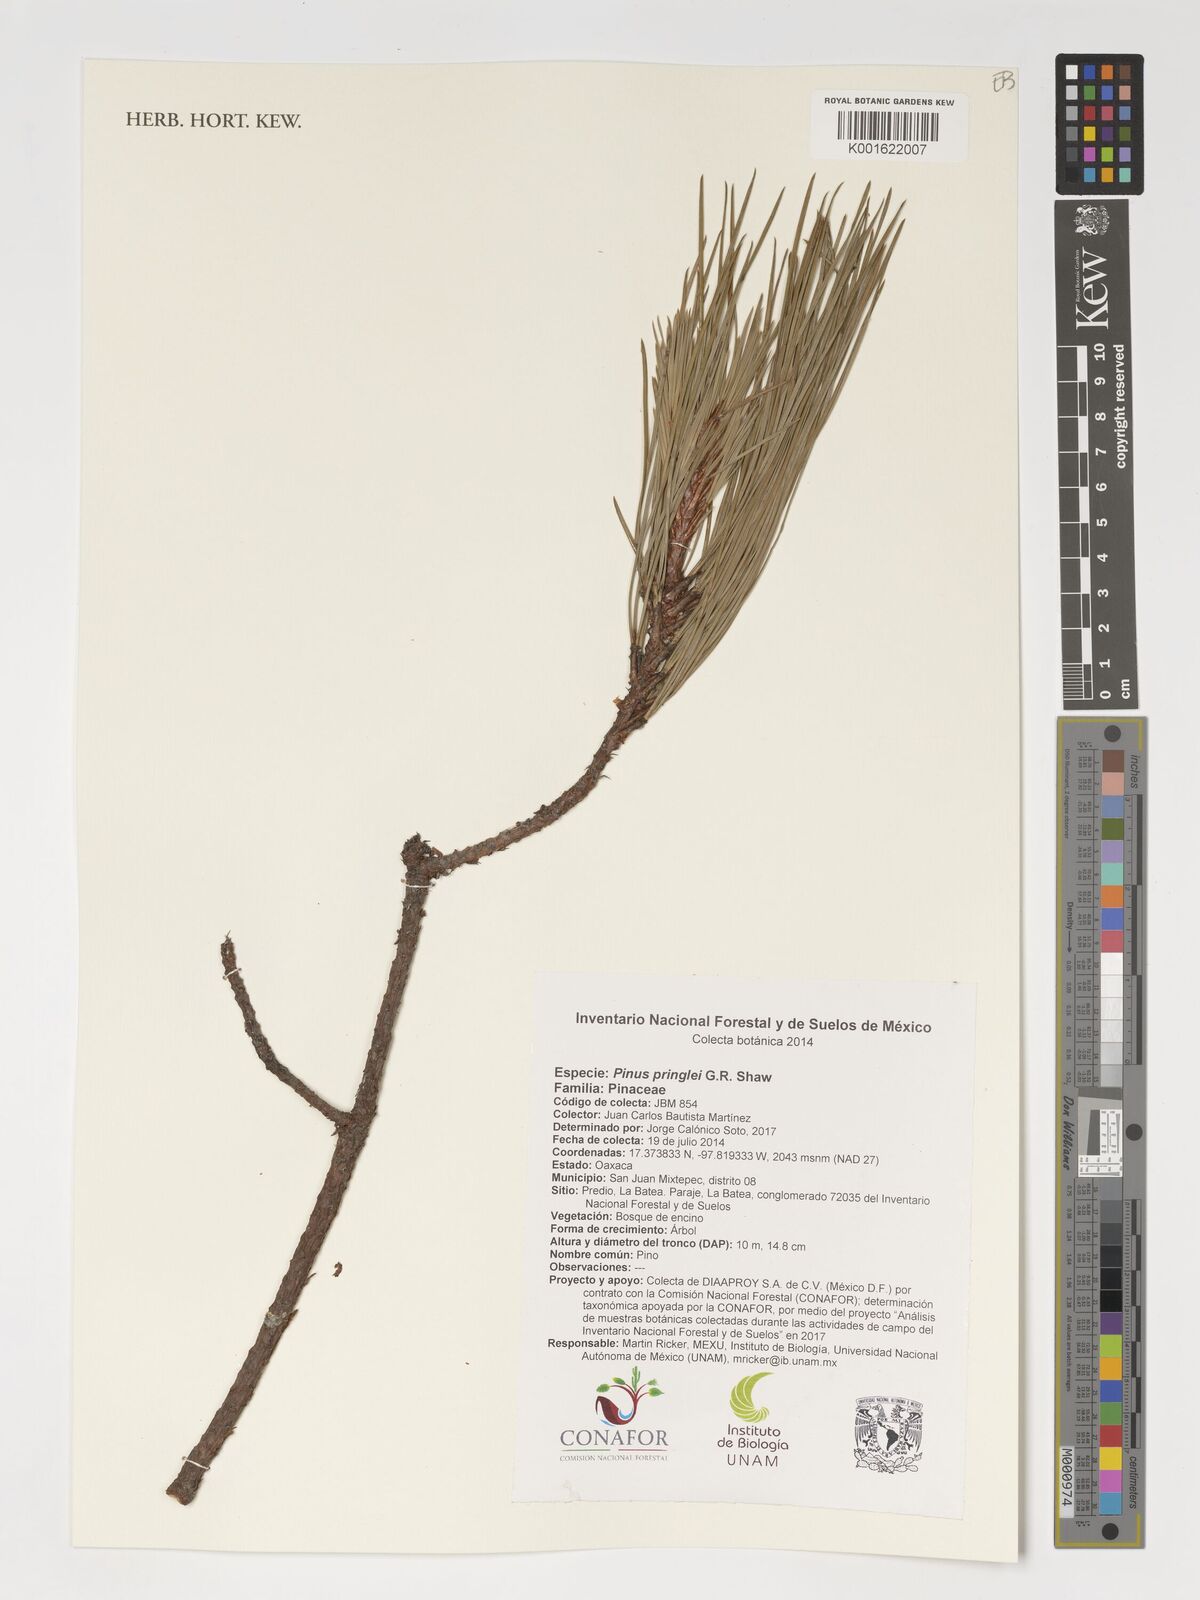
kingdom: Plantae
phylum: Tracheophyta
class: Pinopsida
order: Pinales
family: Pinaceae
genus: Pinus
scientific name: Pinus pringlei
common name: Pringle's pine
